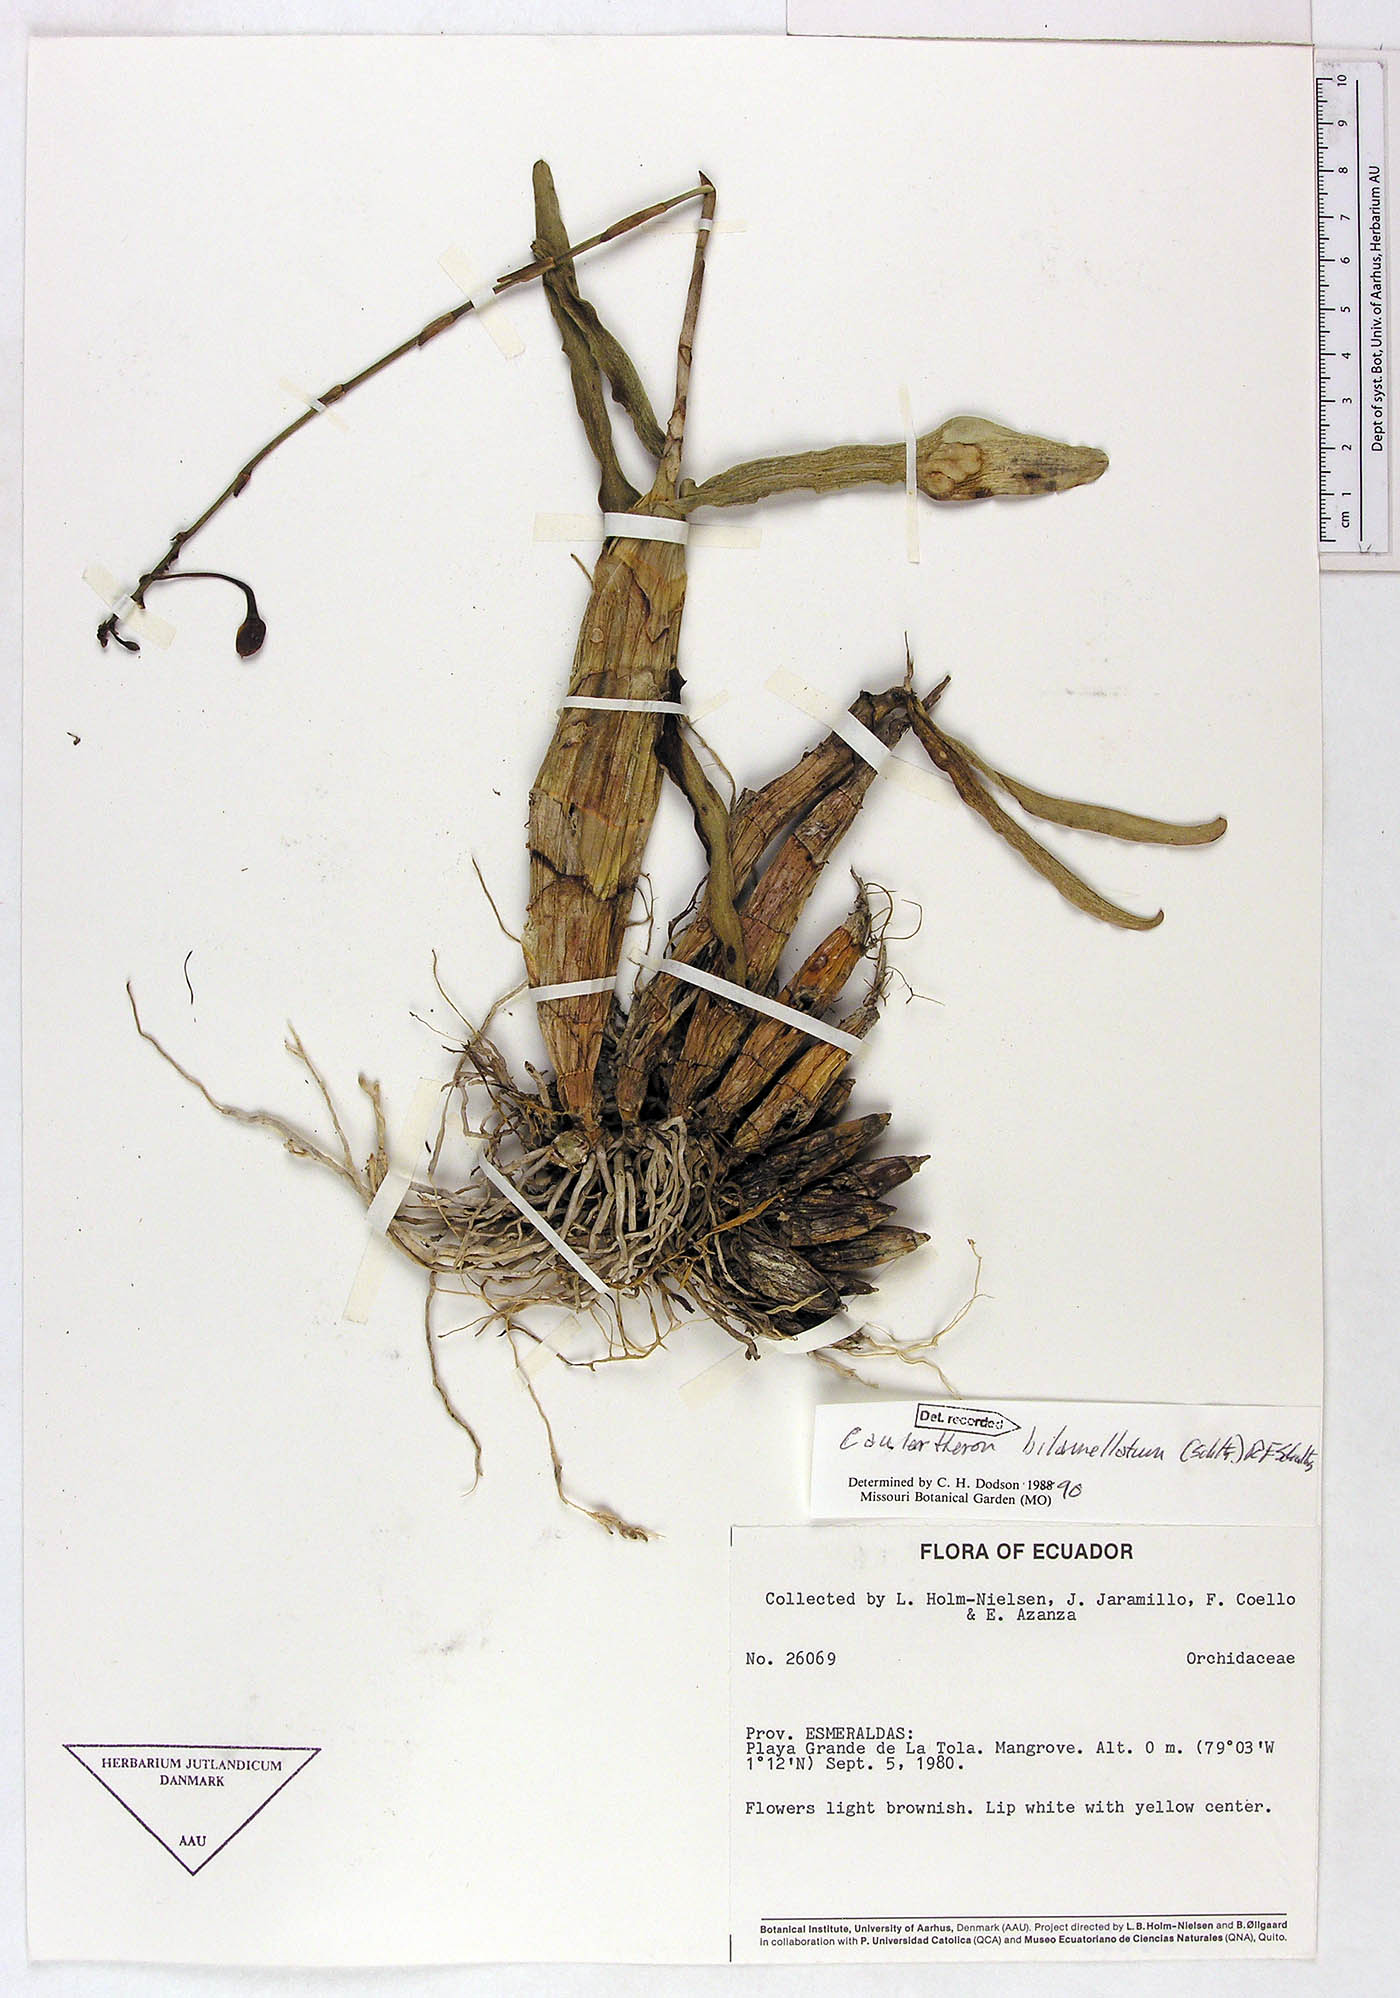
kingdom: Plantae
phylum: Tracheophyta
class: Liliopsida
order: Asparagales
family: Orchidaceae
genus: Caularthron
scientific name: Caularthron bilamellatum
